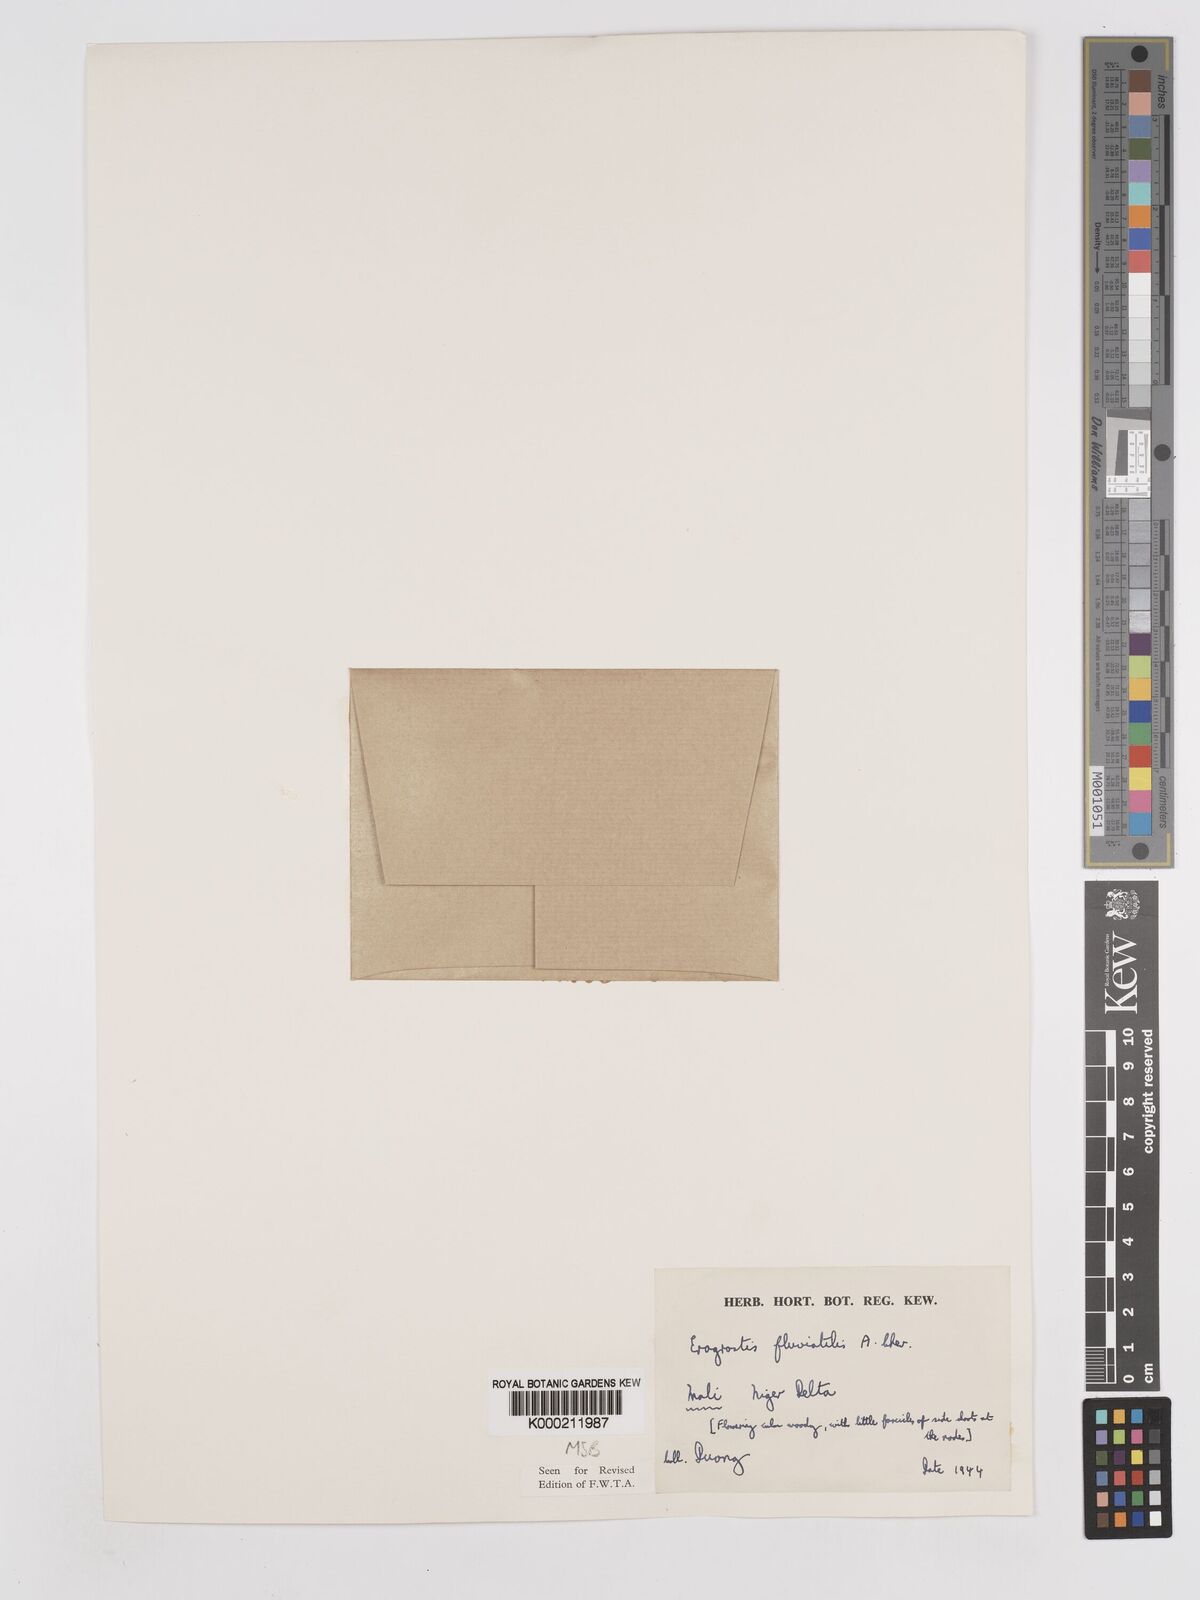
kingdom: Plantae
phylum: Tracheophyta
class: Liliopsida
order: Poales
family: Poaceae
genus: Eragrostis
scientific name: Eragrostis barteri
